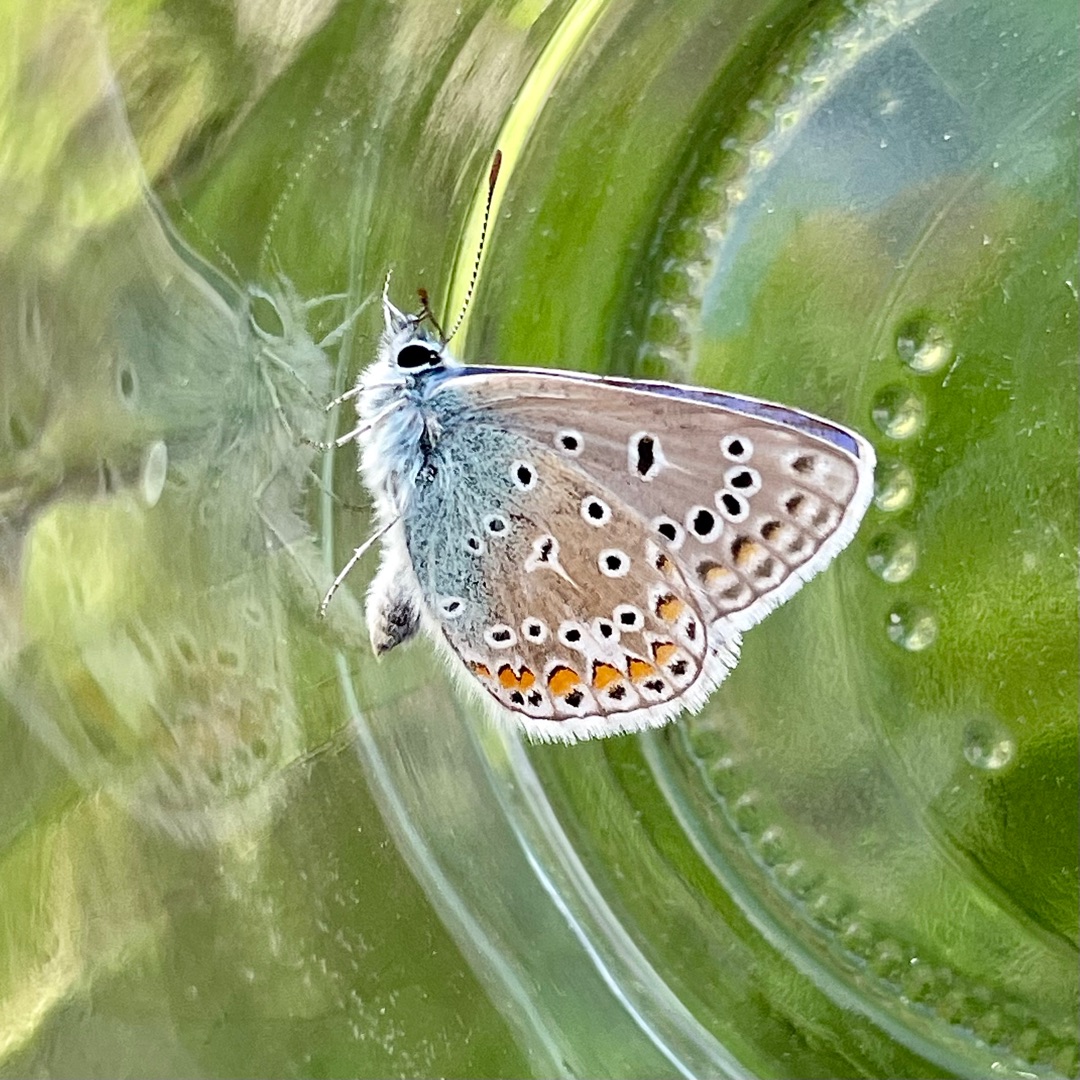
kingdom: Animalia
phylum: Arthropoda
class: Insecta
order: Lepidoptera
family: Lycaenidae
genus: Polyommatus
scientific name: Polyommatus icarus
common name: Almindelig blåfugl
